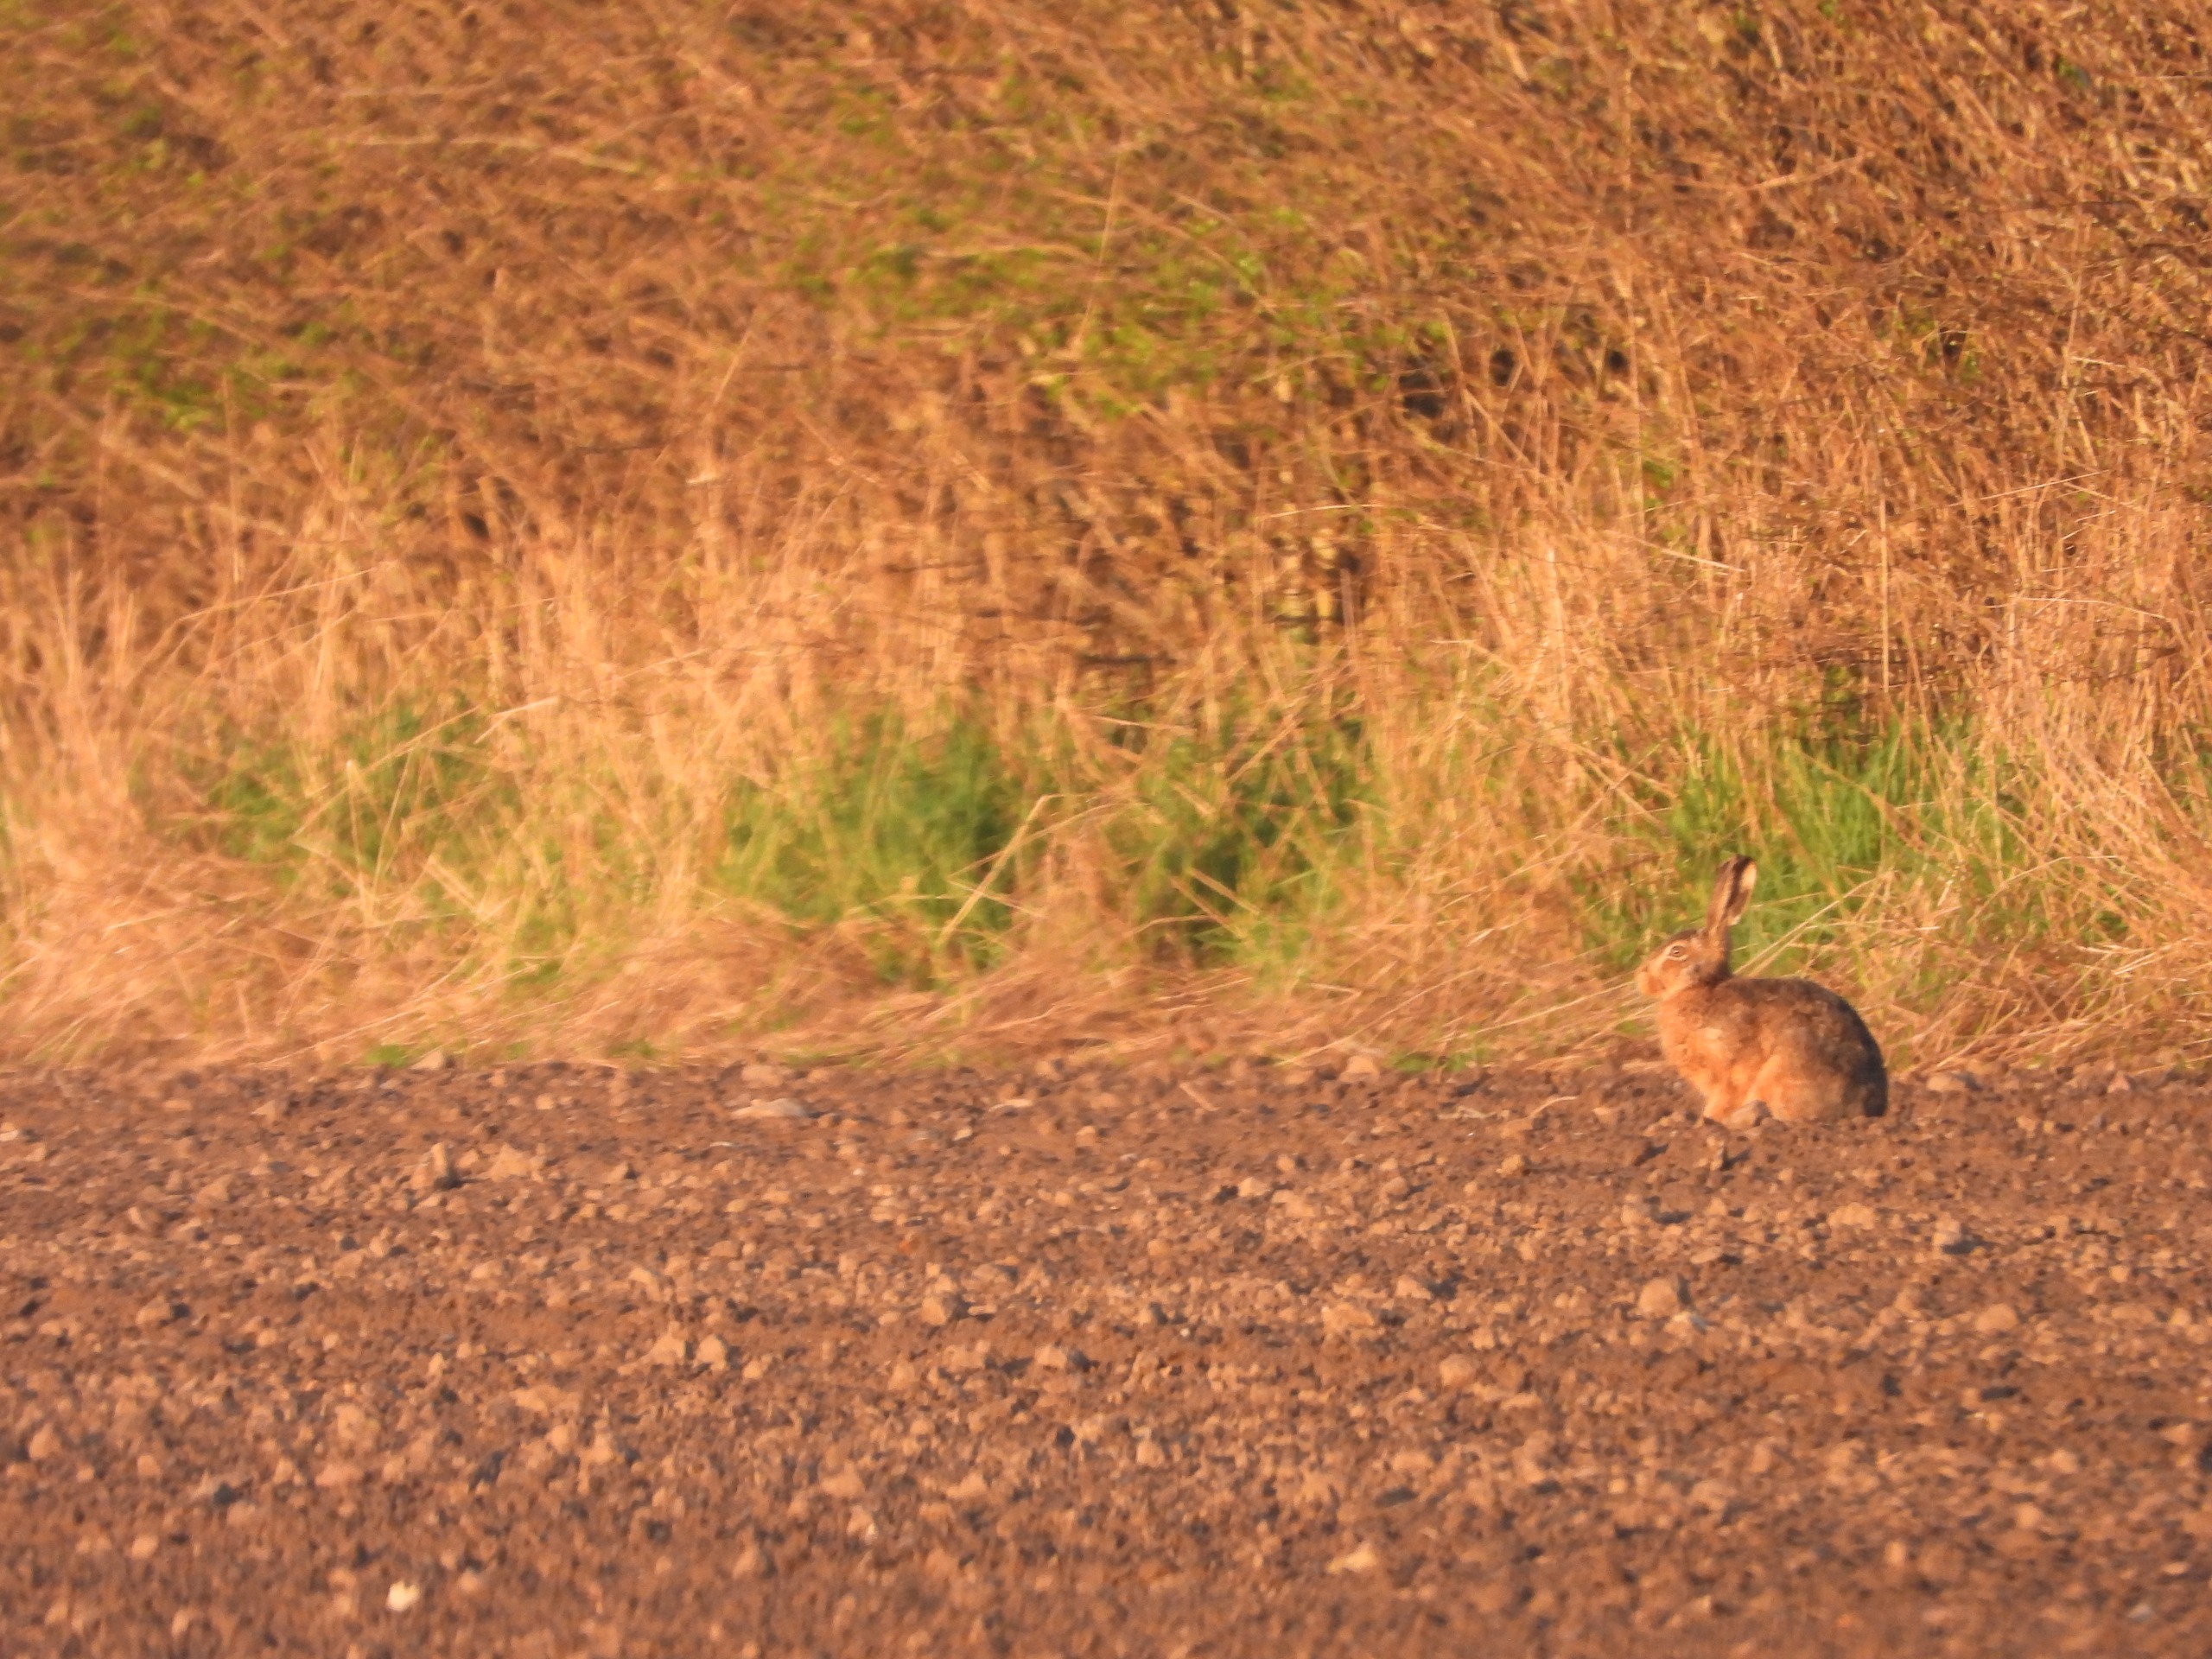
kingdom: Animalia
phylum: Chordata
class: Mammalia
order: Lagomorpha
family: Leporidae
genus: Lepus
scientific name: Lepus europaeus
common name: Hare
